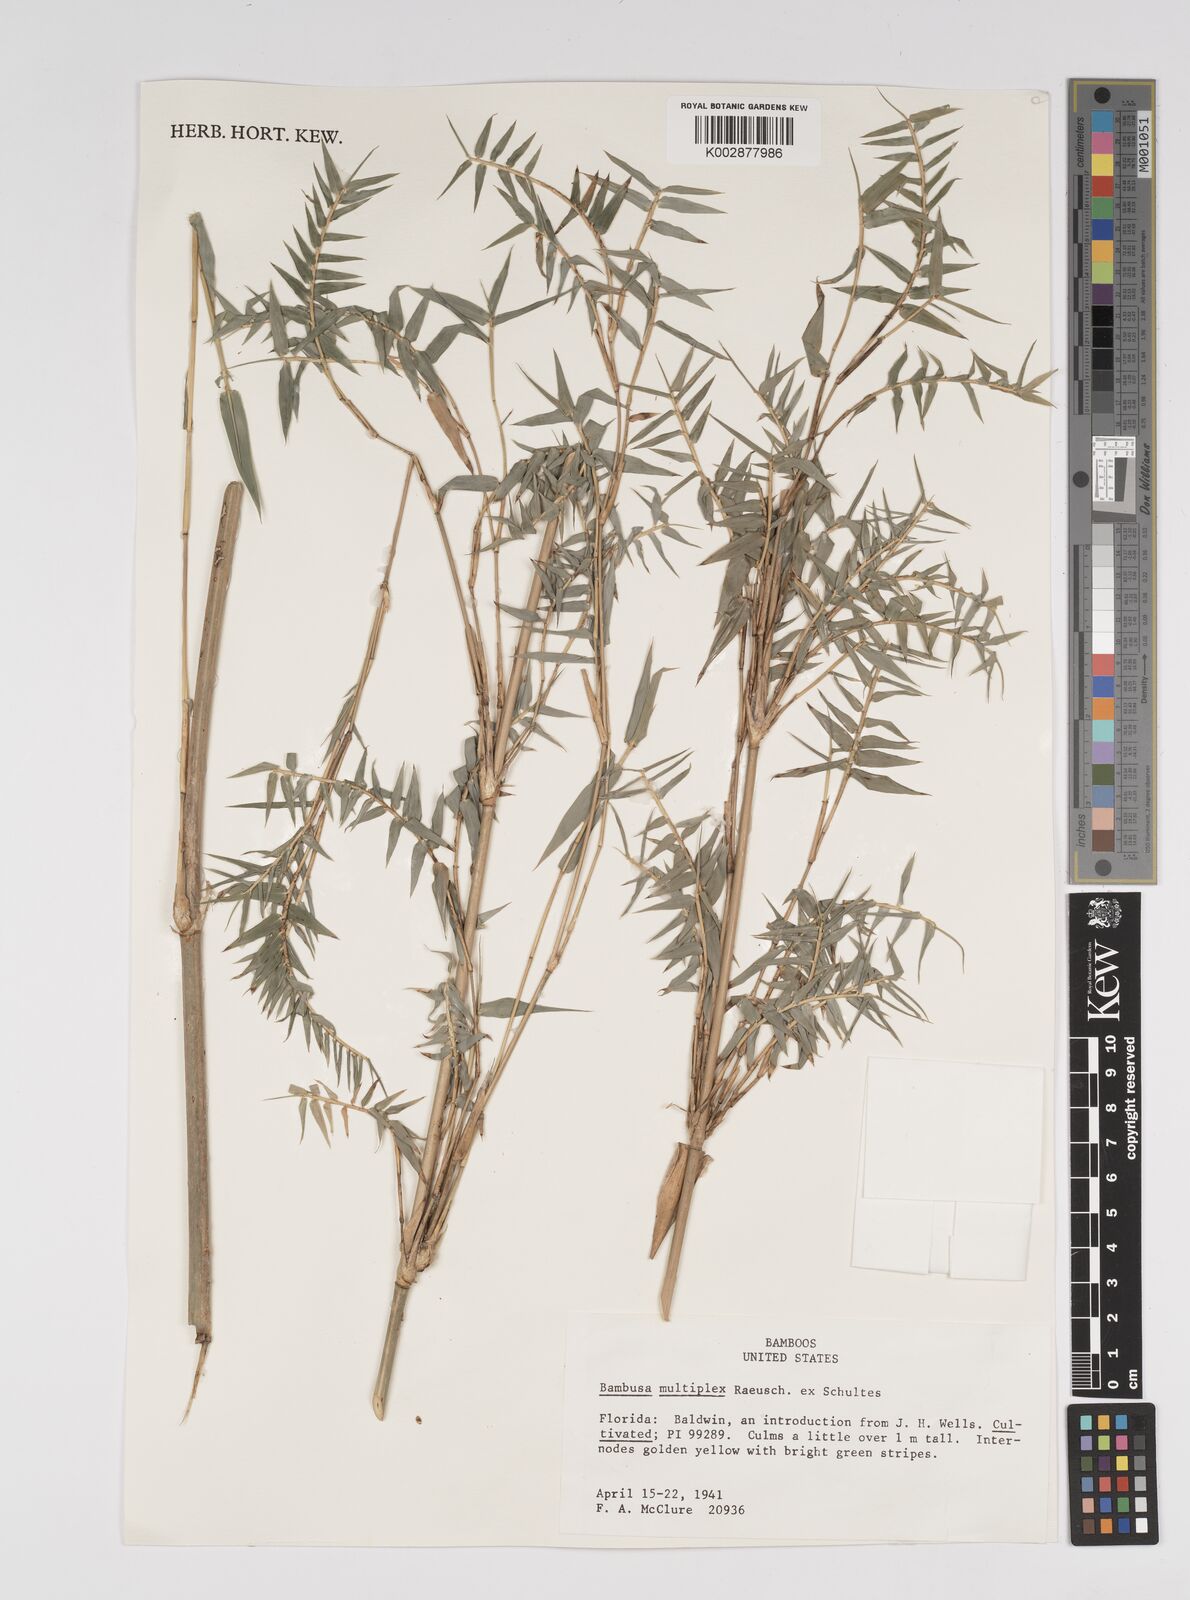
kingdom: Plantae
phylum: Tracheophyta
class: Liliopsida
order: Poales
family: Poaceae
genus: Bambusa
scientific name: Bambusa
